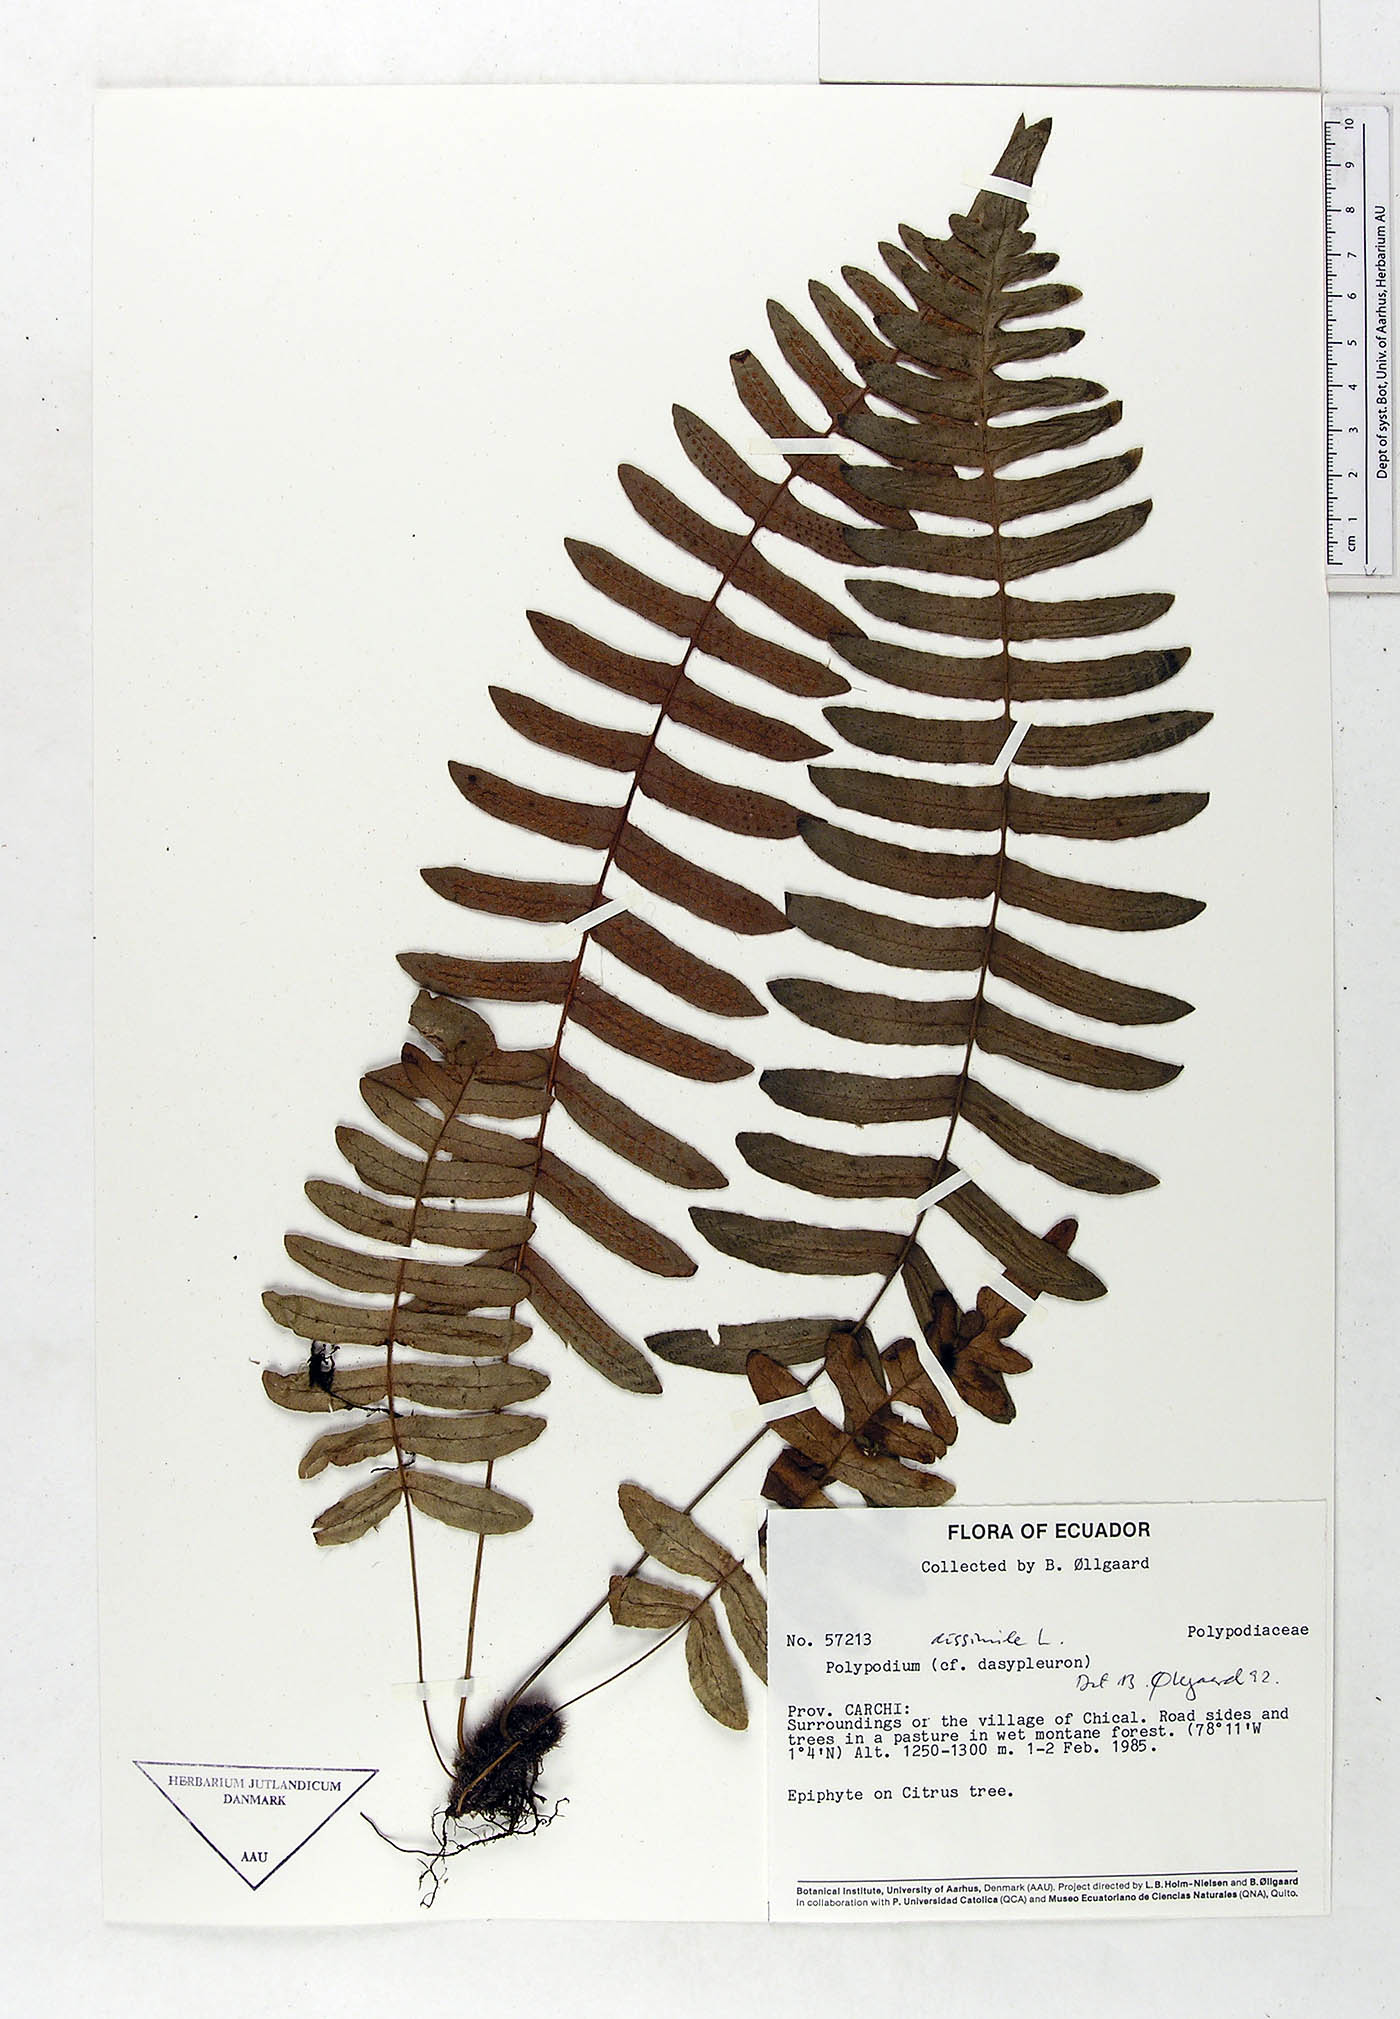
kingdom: Plantae
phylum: Tracheophyta
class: Polypodiopsida
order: Polypodiales
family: Polypodiaceae
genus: Serpocaulon
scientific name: Serpocaulon dissimile
